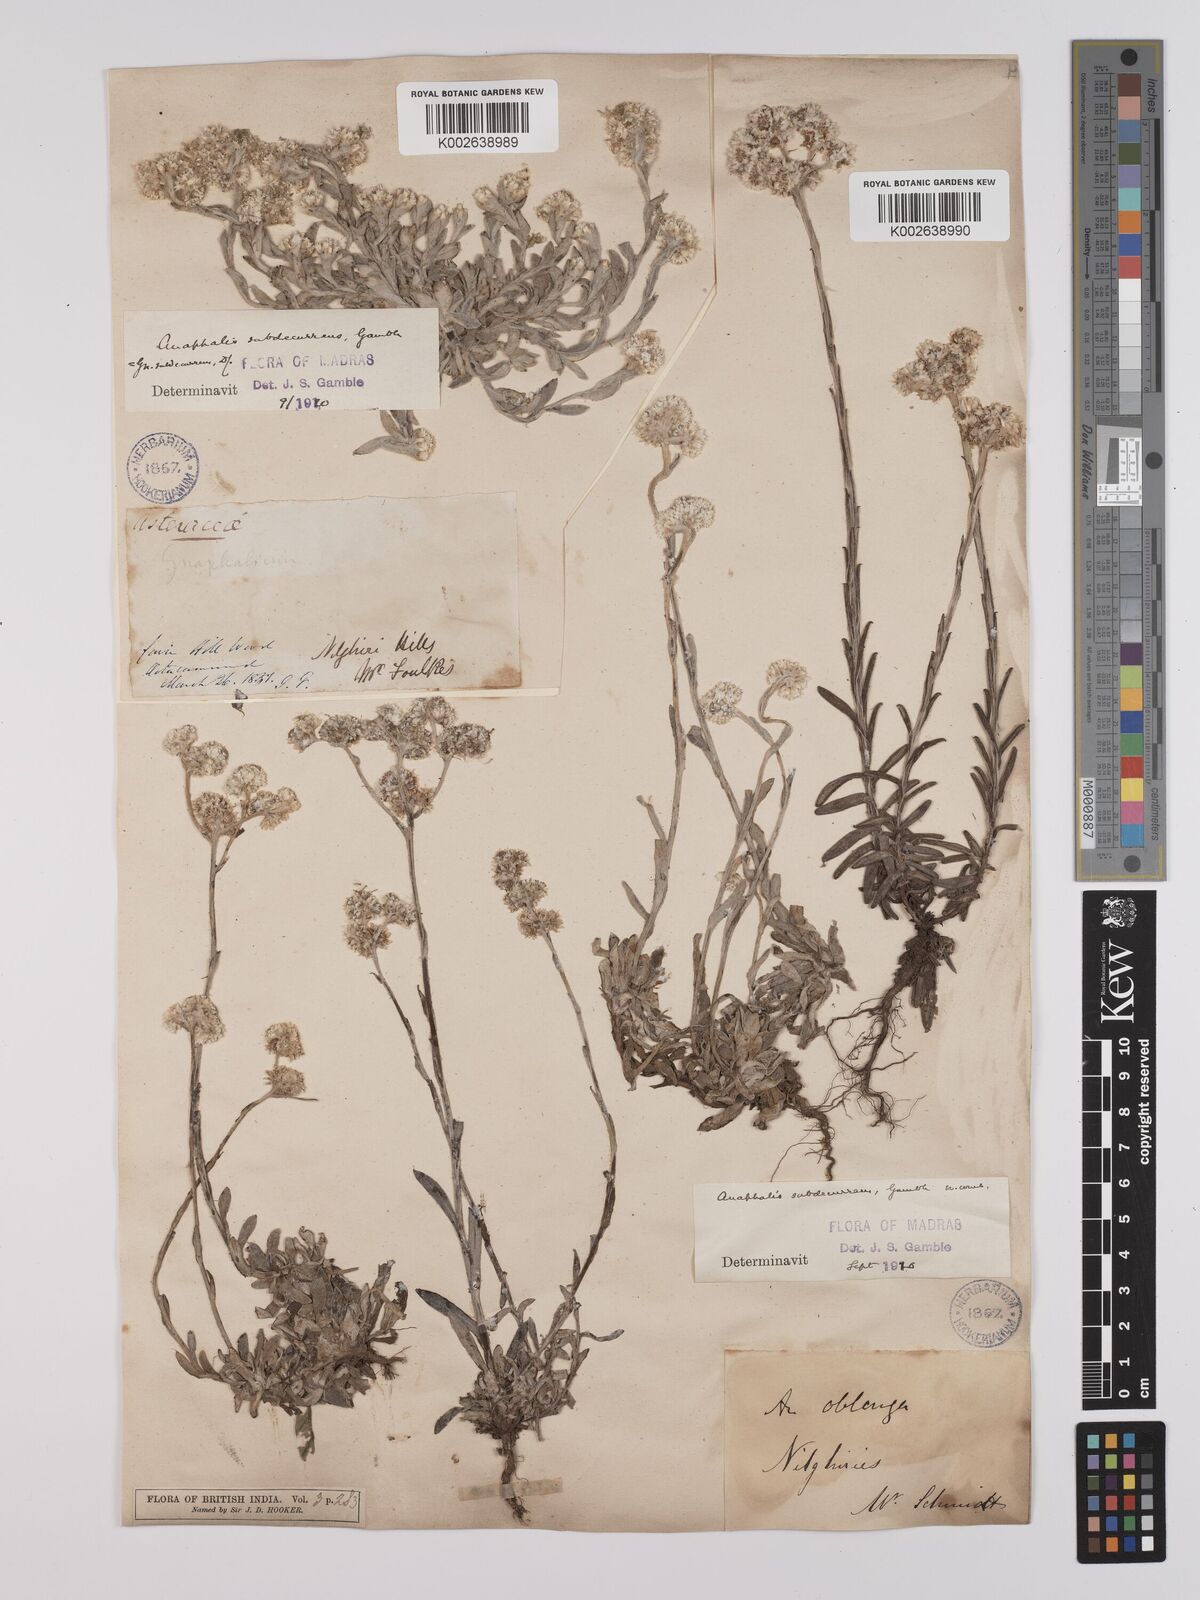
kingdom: Plantae
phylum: Tracheophyta
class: Magnoliopsida
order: Asterales
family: Asteraceae
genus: Anaphalis
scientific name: Anaphalis subdecurrens
